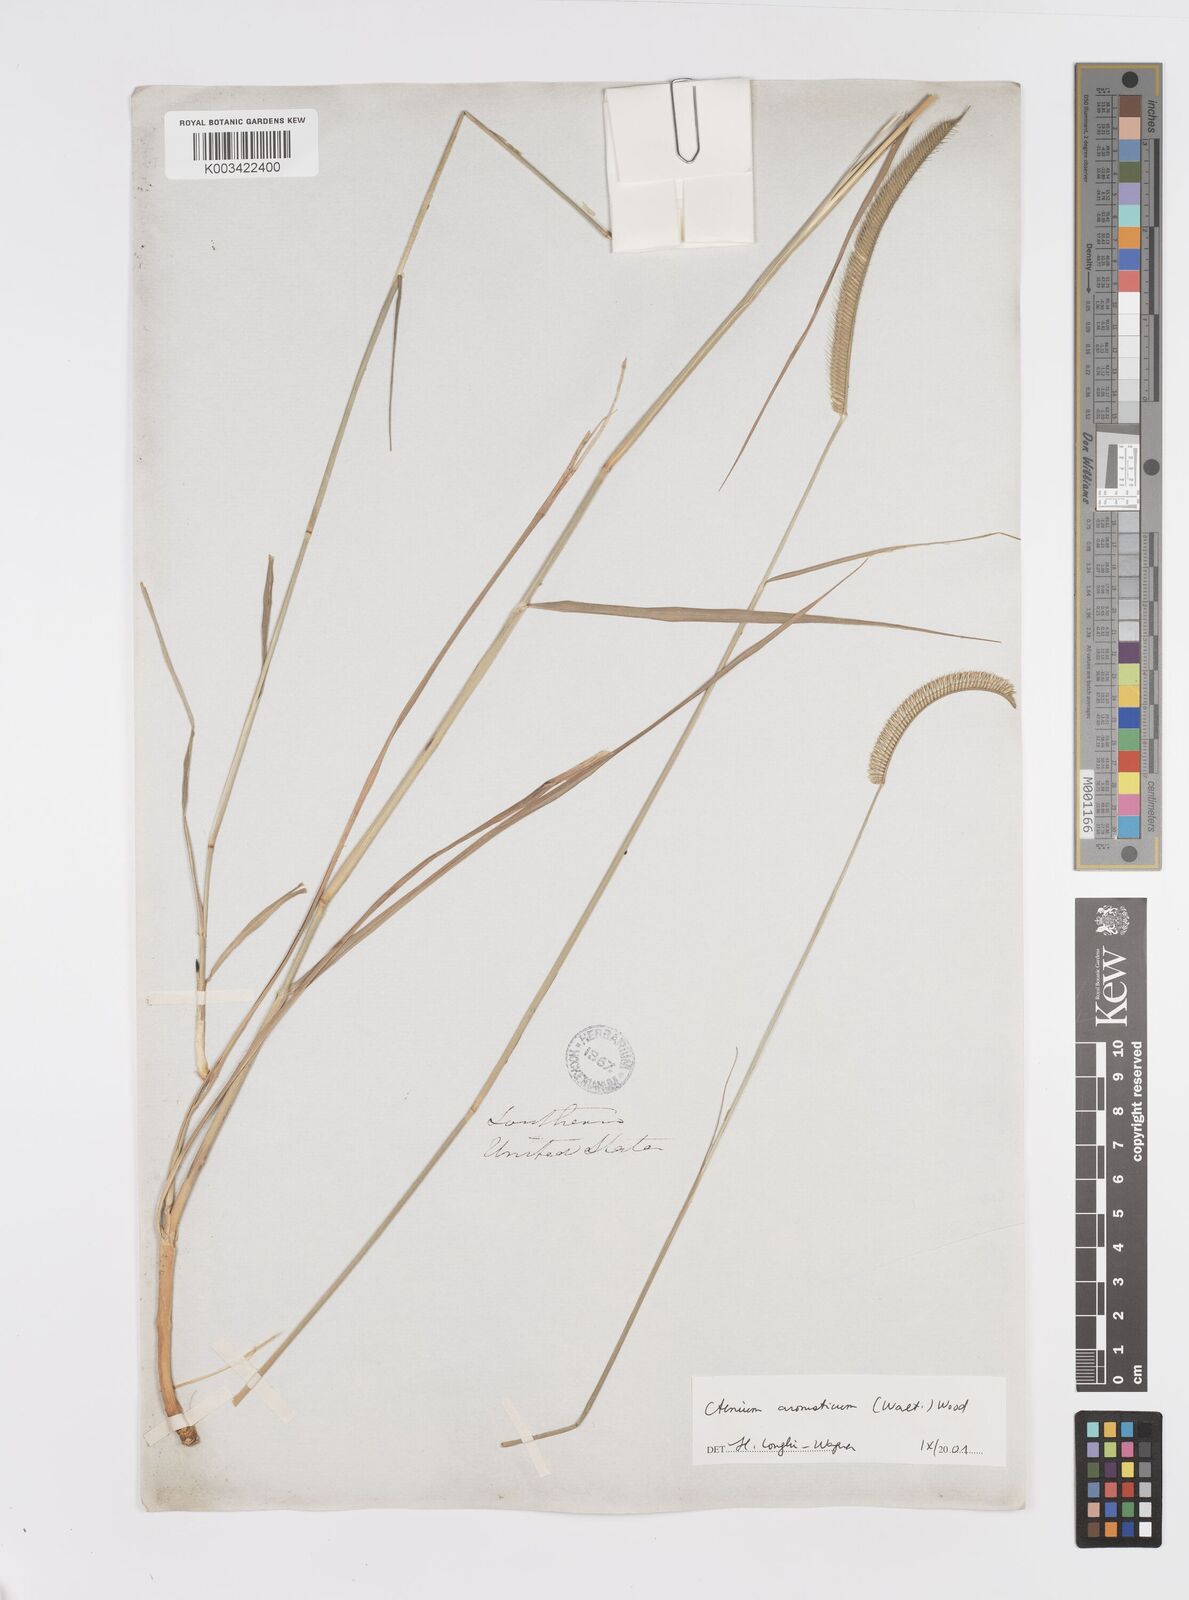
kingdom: Plantae
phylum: Tracheophyta
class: Liliopsida
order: Poales
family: Poaceae
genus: Ctenium
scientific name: Ctenium aromaticum
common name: Toothache grass
